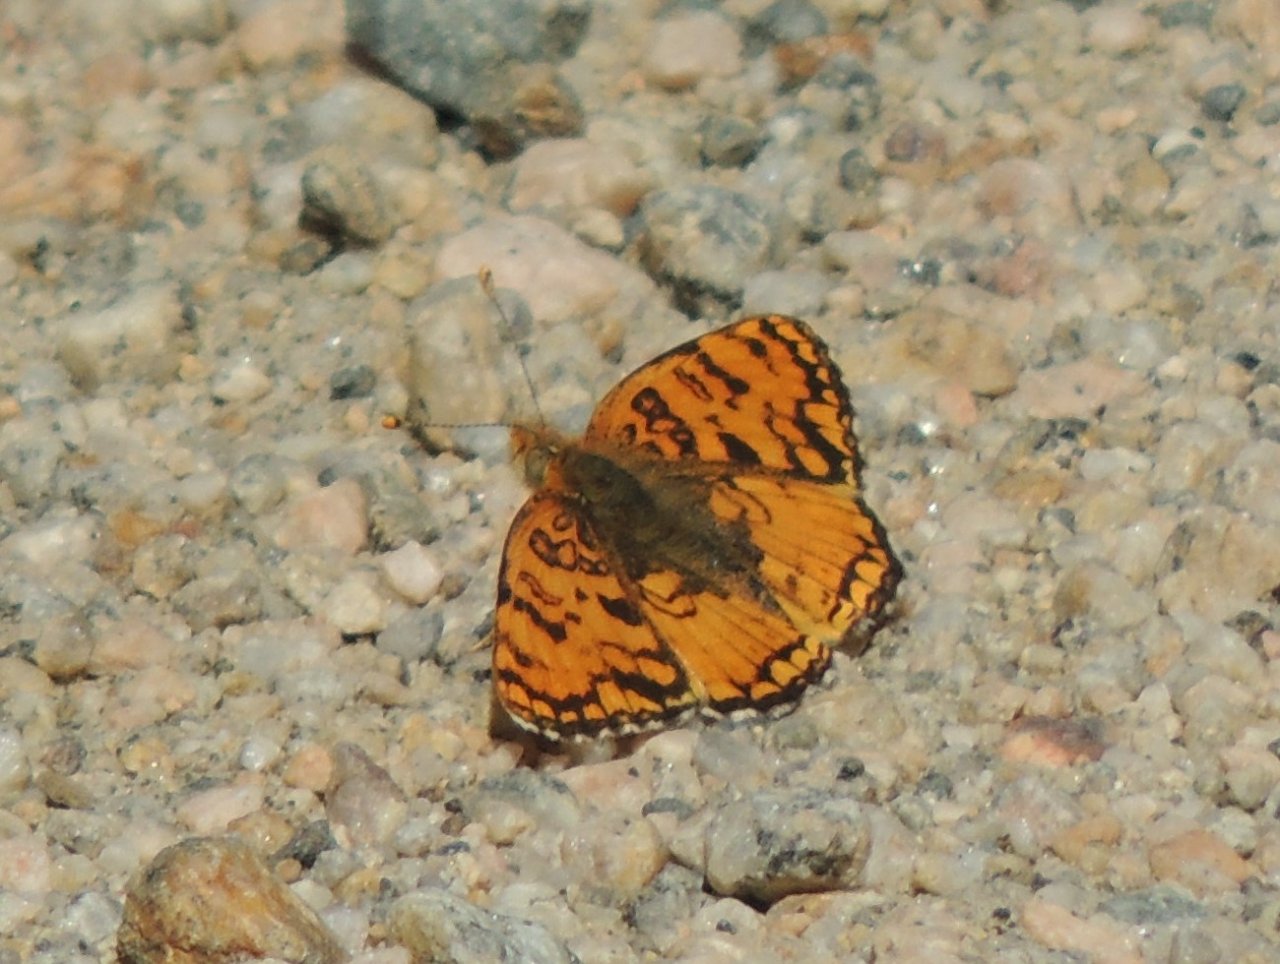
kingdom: Animalia
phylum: Arthropoda
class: Insecta
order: Lepidoptera
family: Nymphalidae
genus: Phyciodes
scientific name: Phyciodes pallida
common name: Pale Crescent
